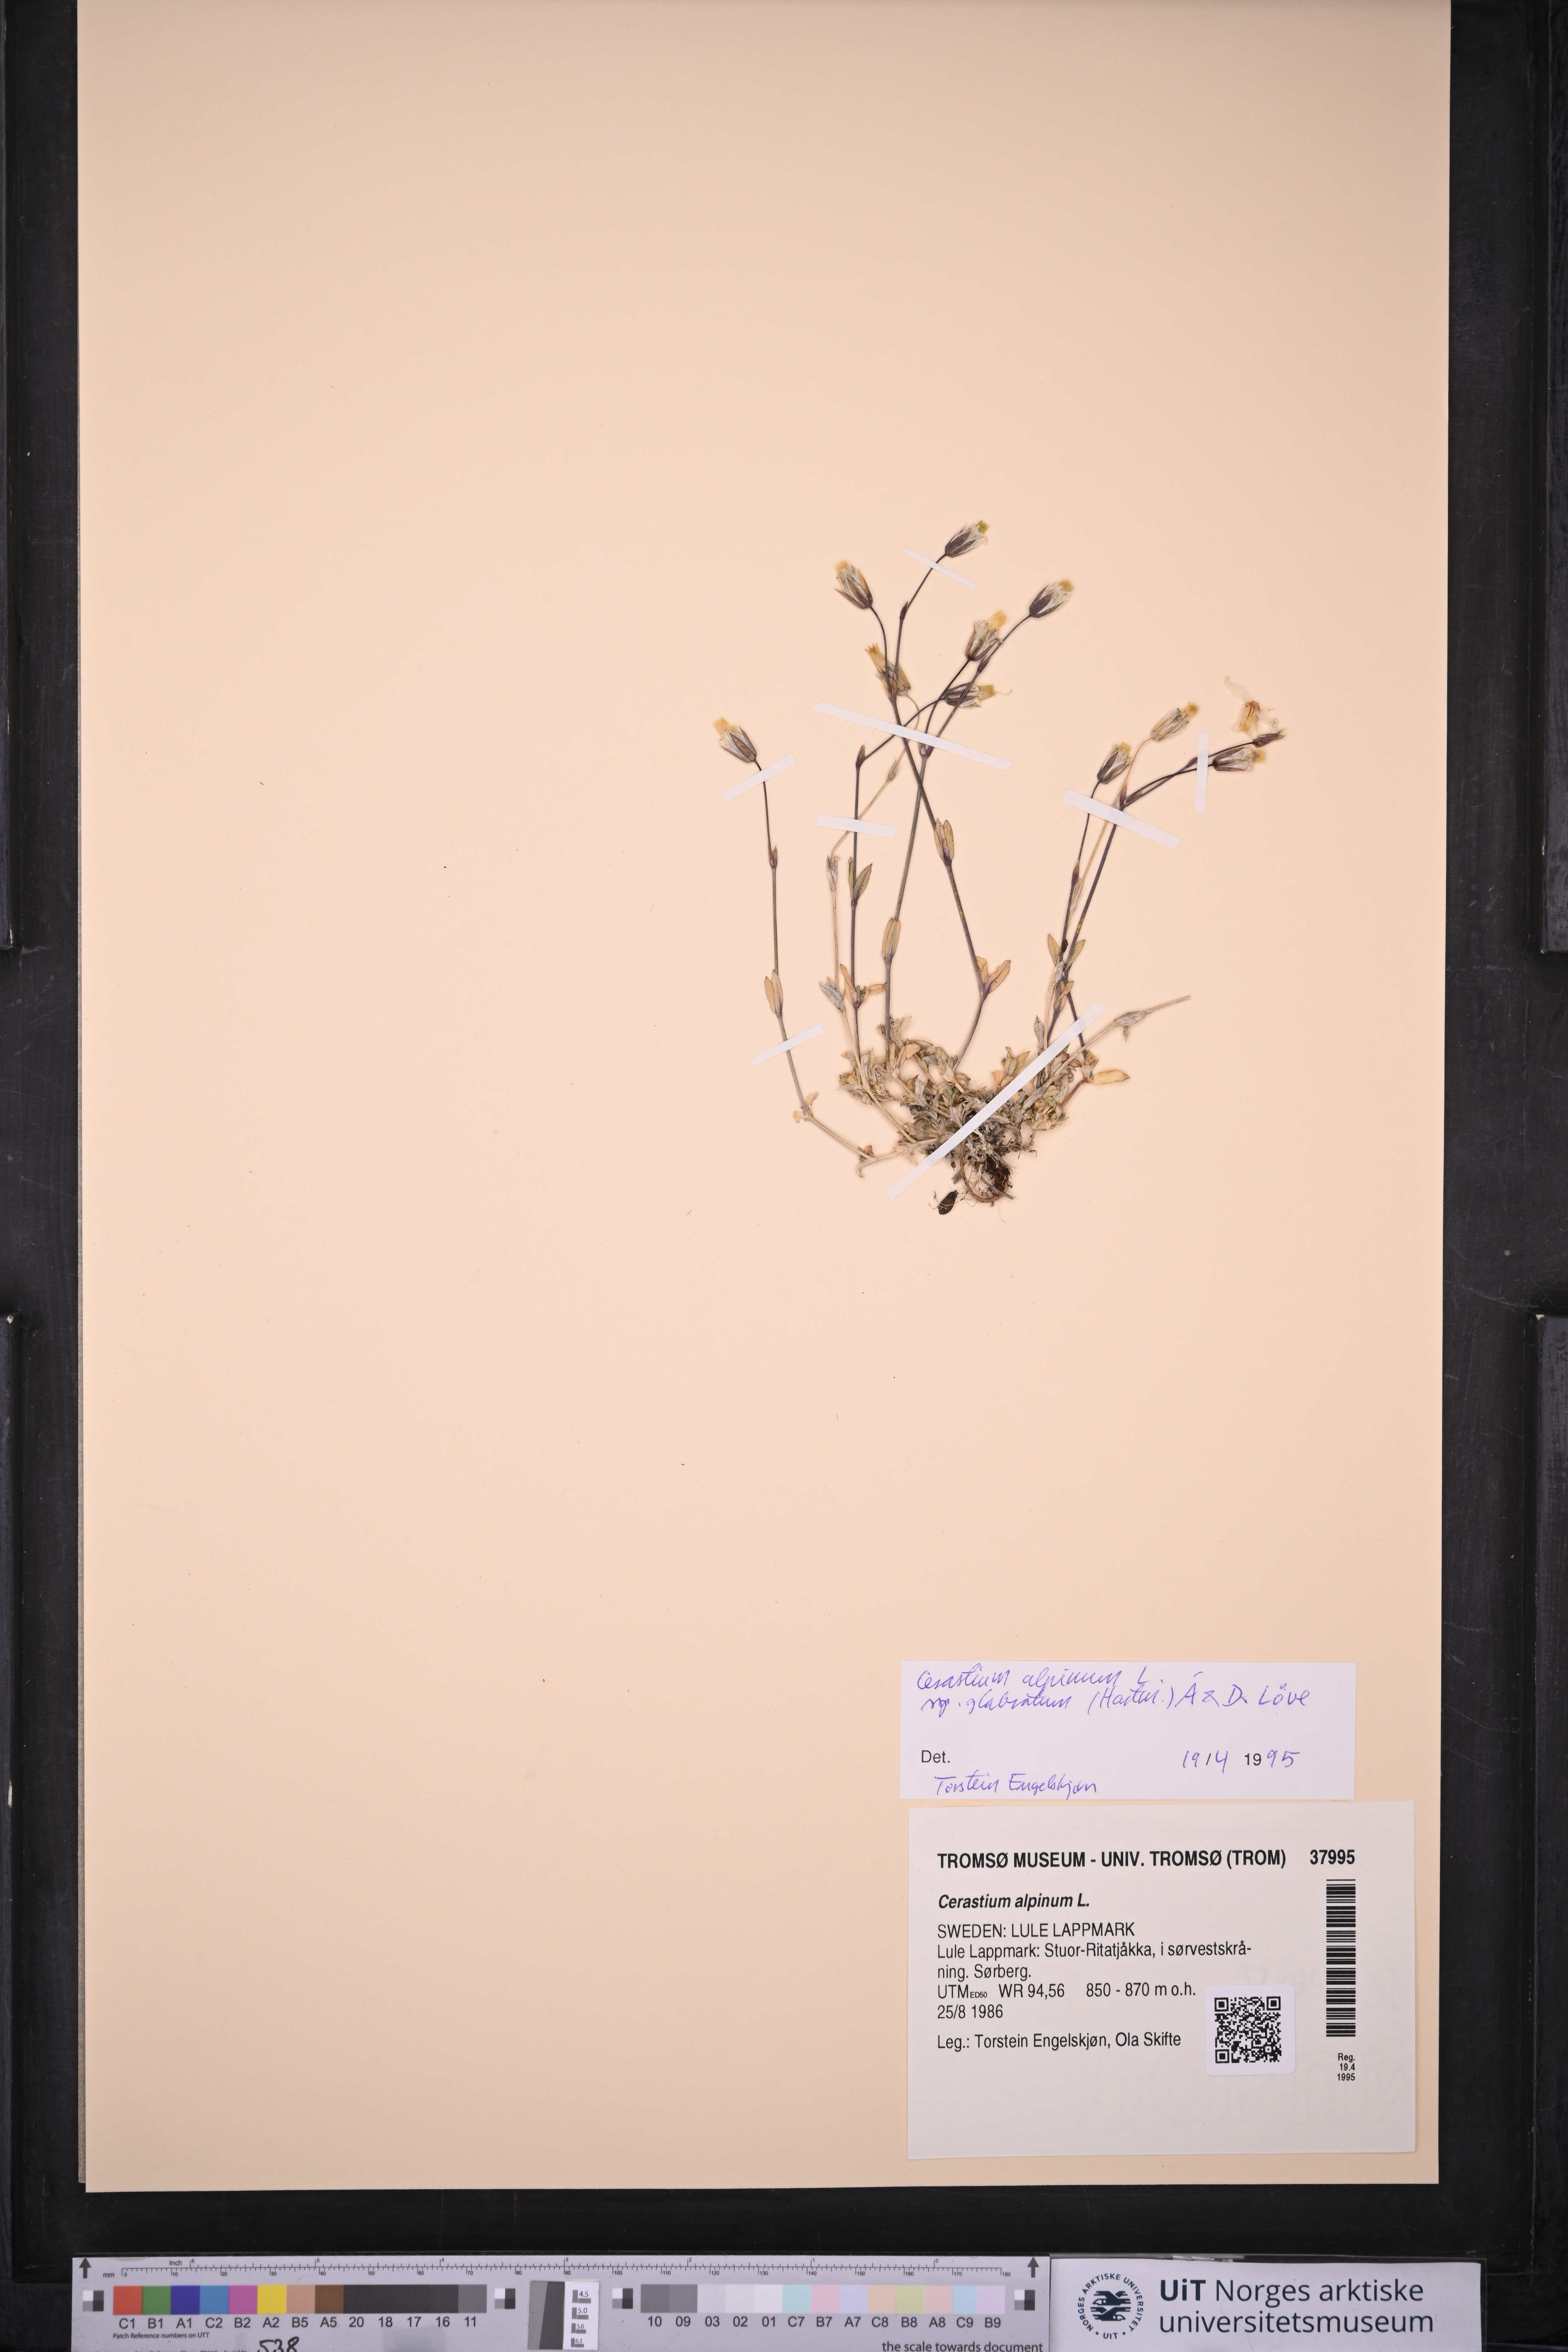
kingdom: Plantae
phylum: Tracheophyta
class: Magnoliopsida
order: Caryophyllales
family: Caryophyllaceae
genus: Cerastium
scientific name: Cerastium alpinum
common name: Alpine mouse-ear
